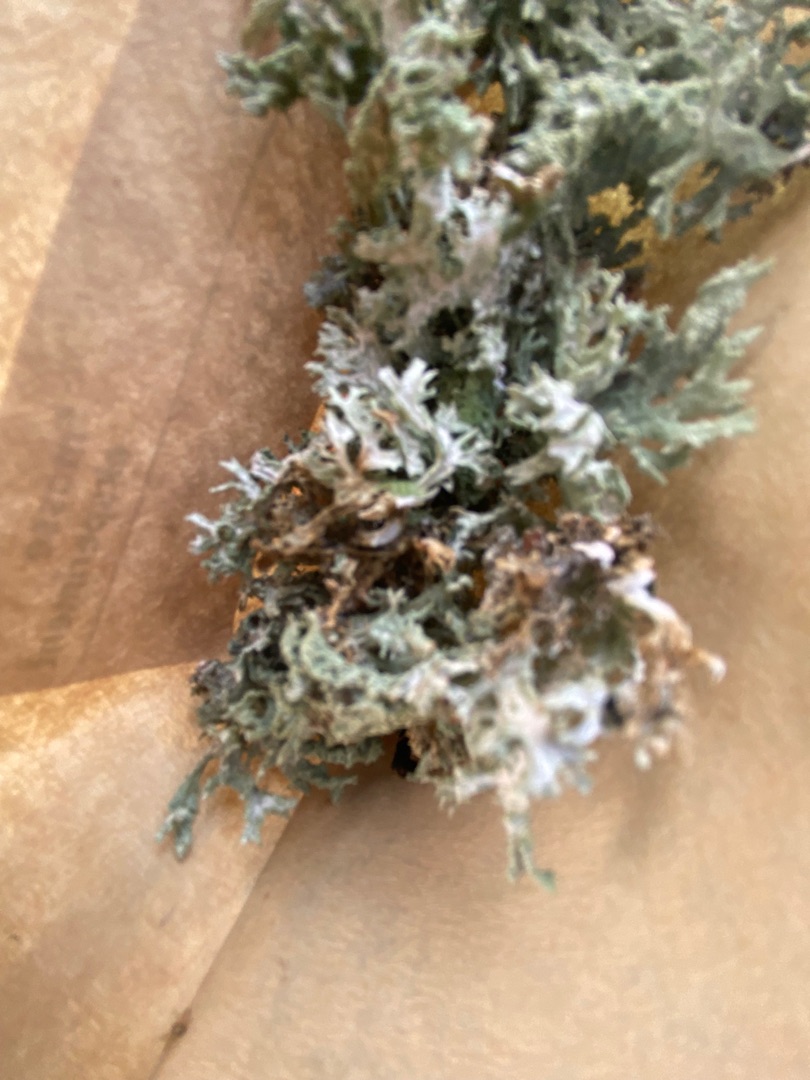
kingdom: Fungi
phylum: Ascomycota
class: Lecanoromycetes
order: Lecanorales
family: Parmeliaceae
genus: Evernia
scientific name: Evernia prunastri
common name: Almindelig slåenlav
